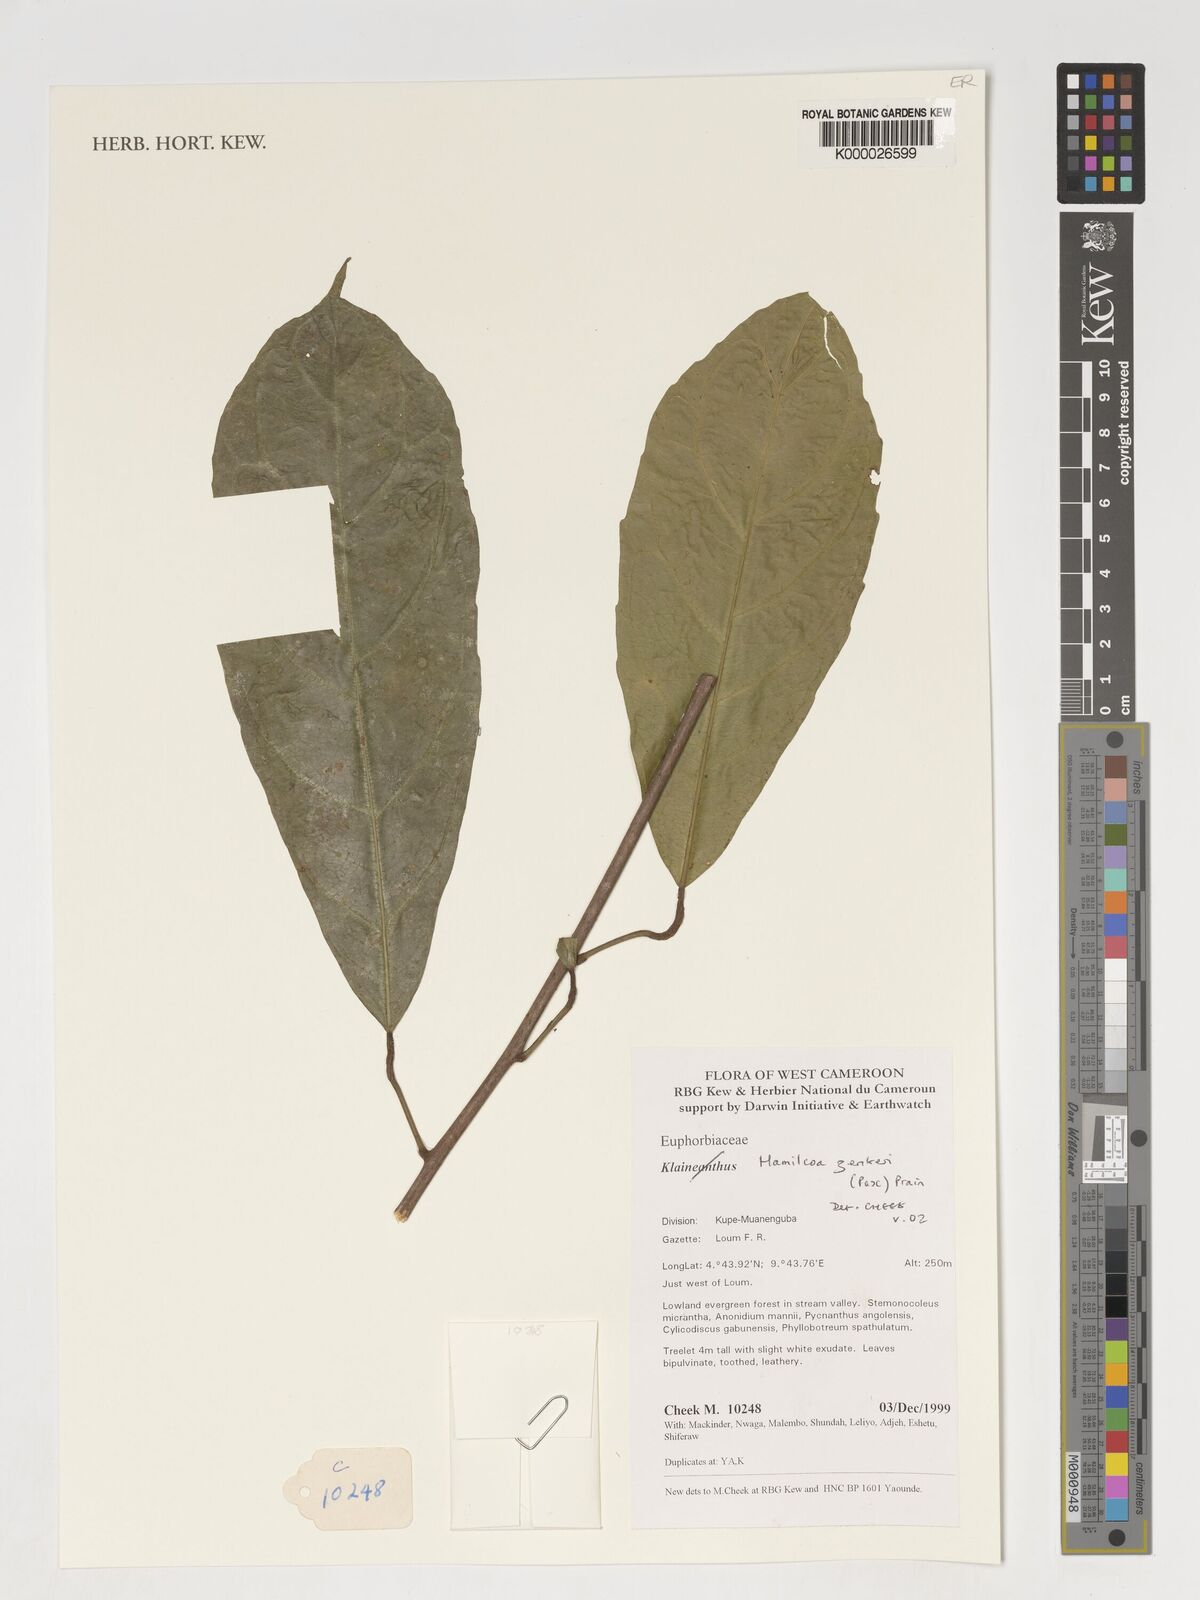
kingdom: Plantae
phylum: Tracheophyta
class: Magnoliopsida
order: Malpighiales
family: Euphorbiaceae
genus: Hamilcoa
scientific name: Hamilcoa zenkeri
